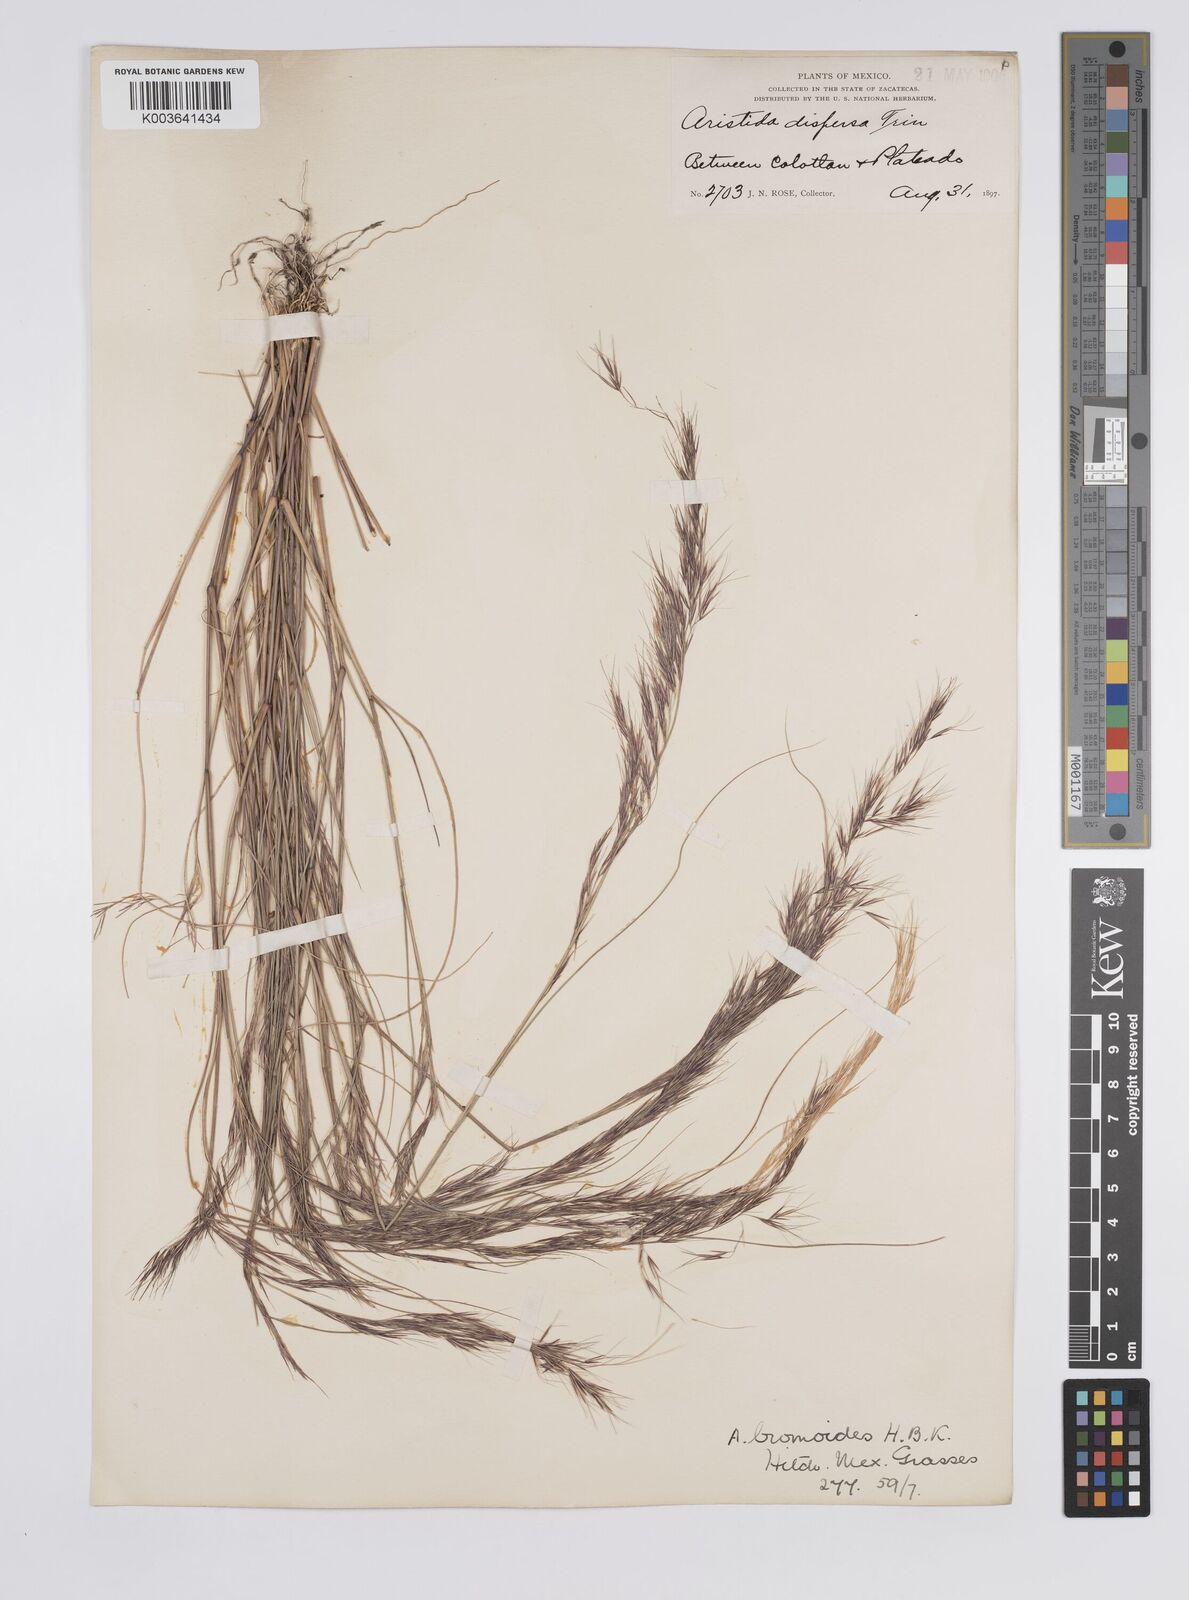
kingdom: Plantae
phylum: Tracheophyta
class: Liliopsida
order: Poales
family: Poaceae
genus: Aristida
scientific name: Aristida adscensionis
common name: Sixweeks threeawn
